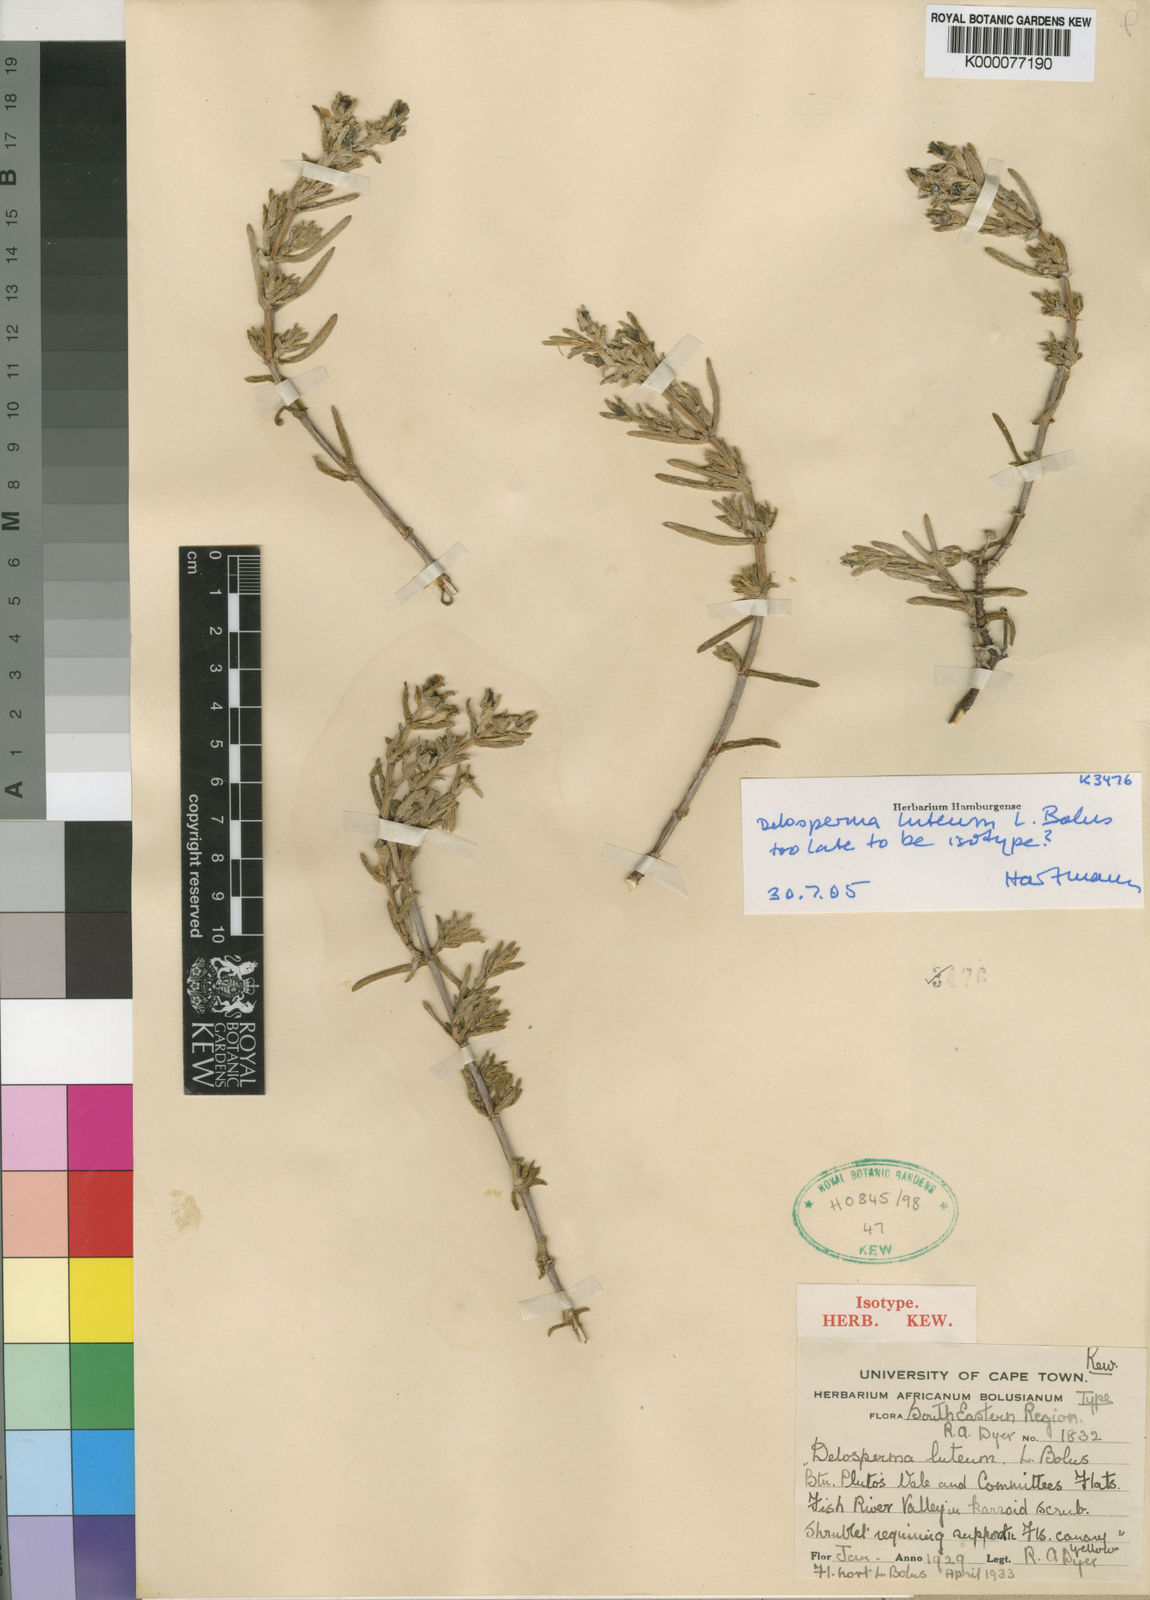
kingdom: Plantae
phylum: Tracheophyta
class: Magnoliopsida
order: Caryophyllales
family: Aizoaceae
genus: Delosperma
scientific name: Delosperma luteum
